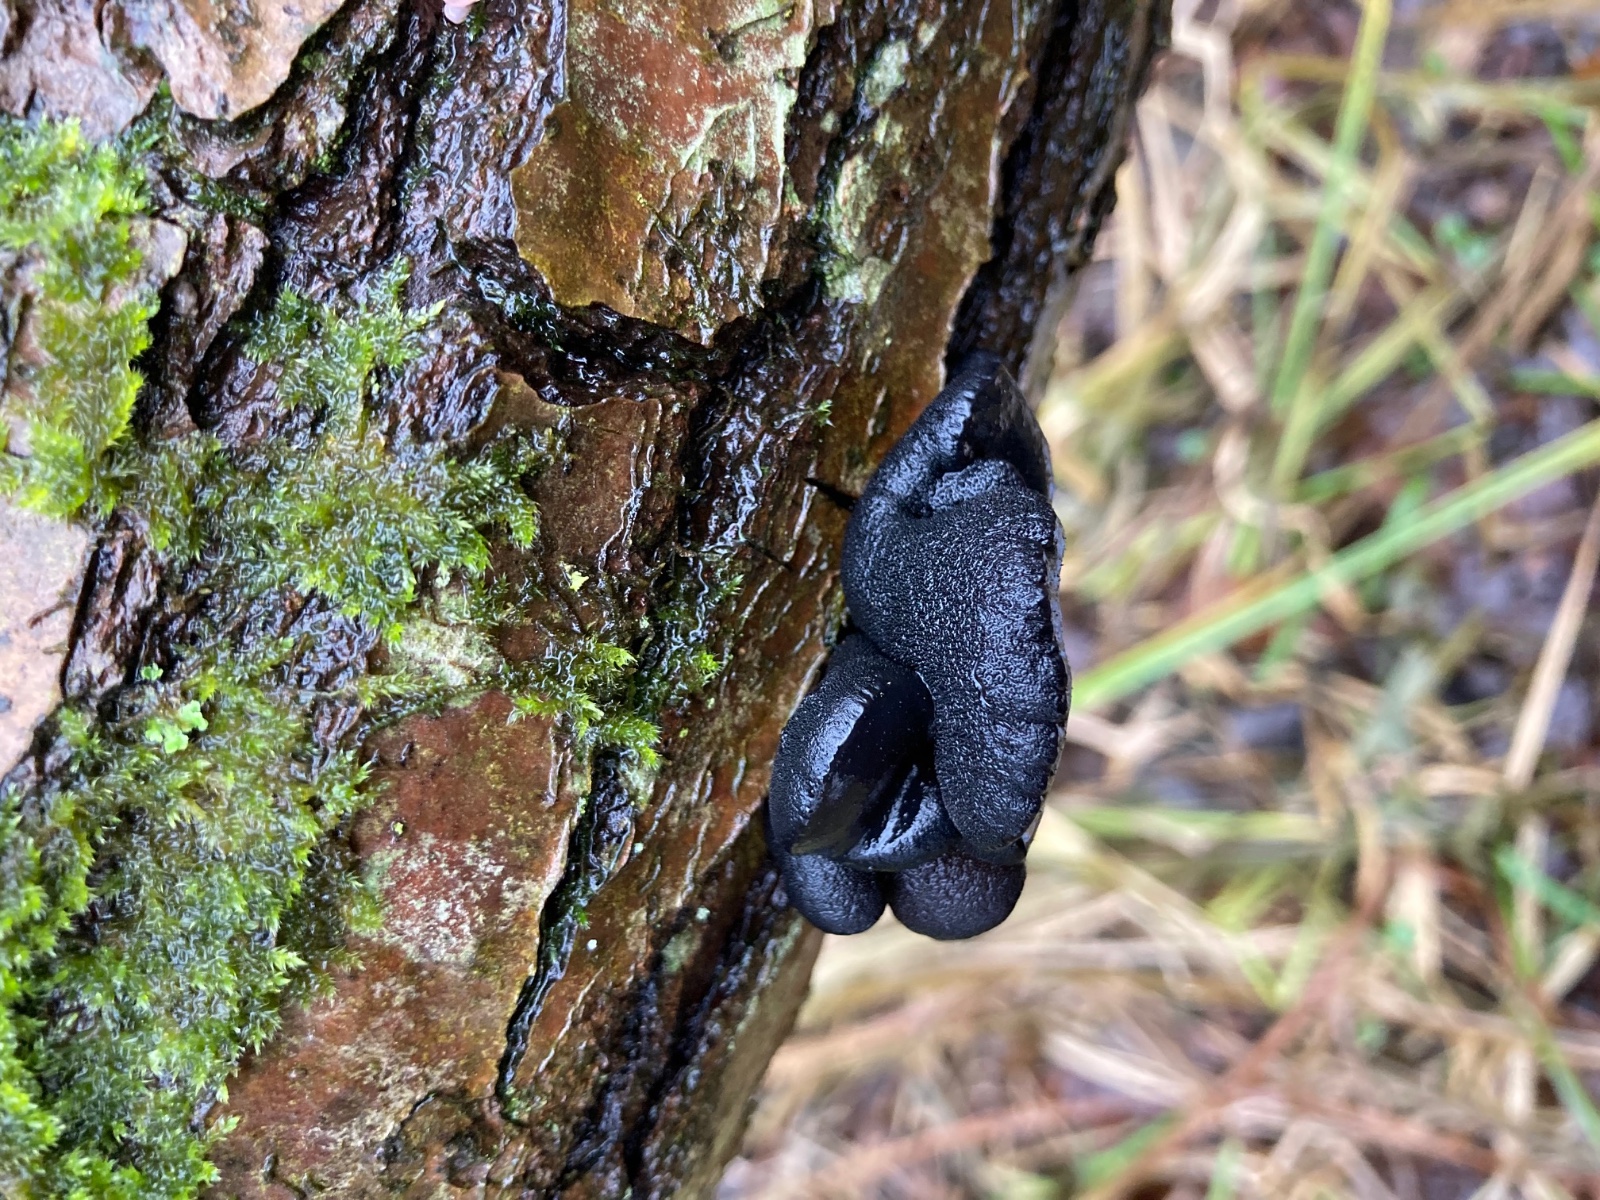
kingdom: Fungi
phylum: Basidiomycota
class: Agaricomycetes
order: Auriculariales
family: Auriculariaceae
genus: Exidia
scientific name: Exidia glandulosa
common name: ege-bævretop
